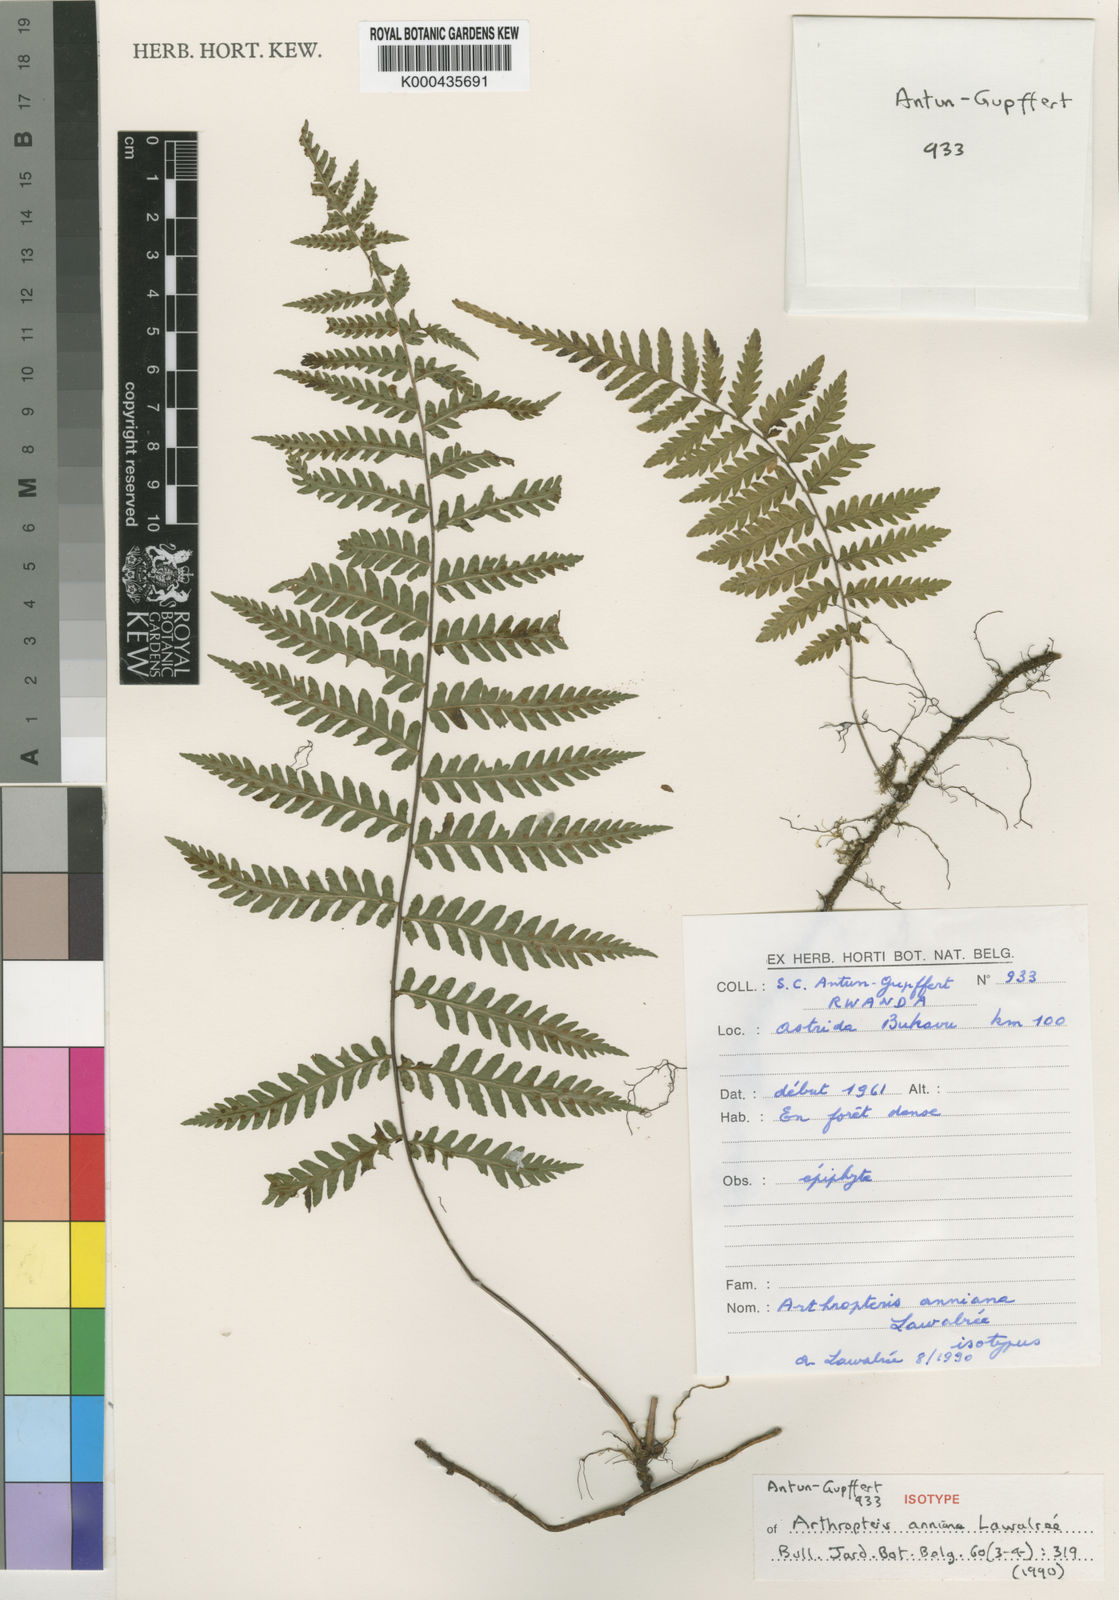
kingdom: Plantae
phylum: Tracheophyta
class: Polypodiopsida
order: Polypodiales
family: Tectariaceae
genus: Arthropteris
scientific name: Arthropteris
